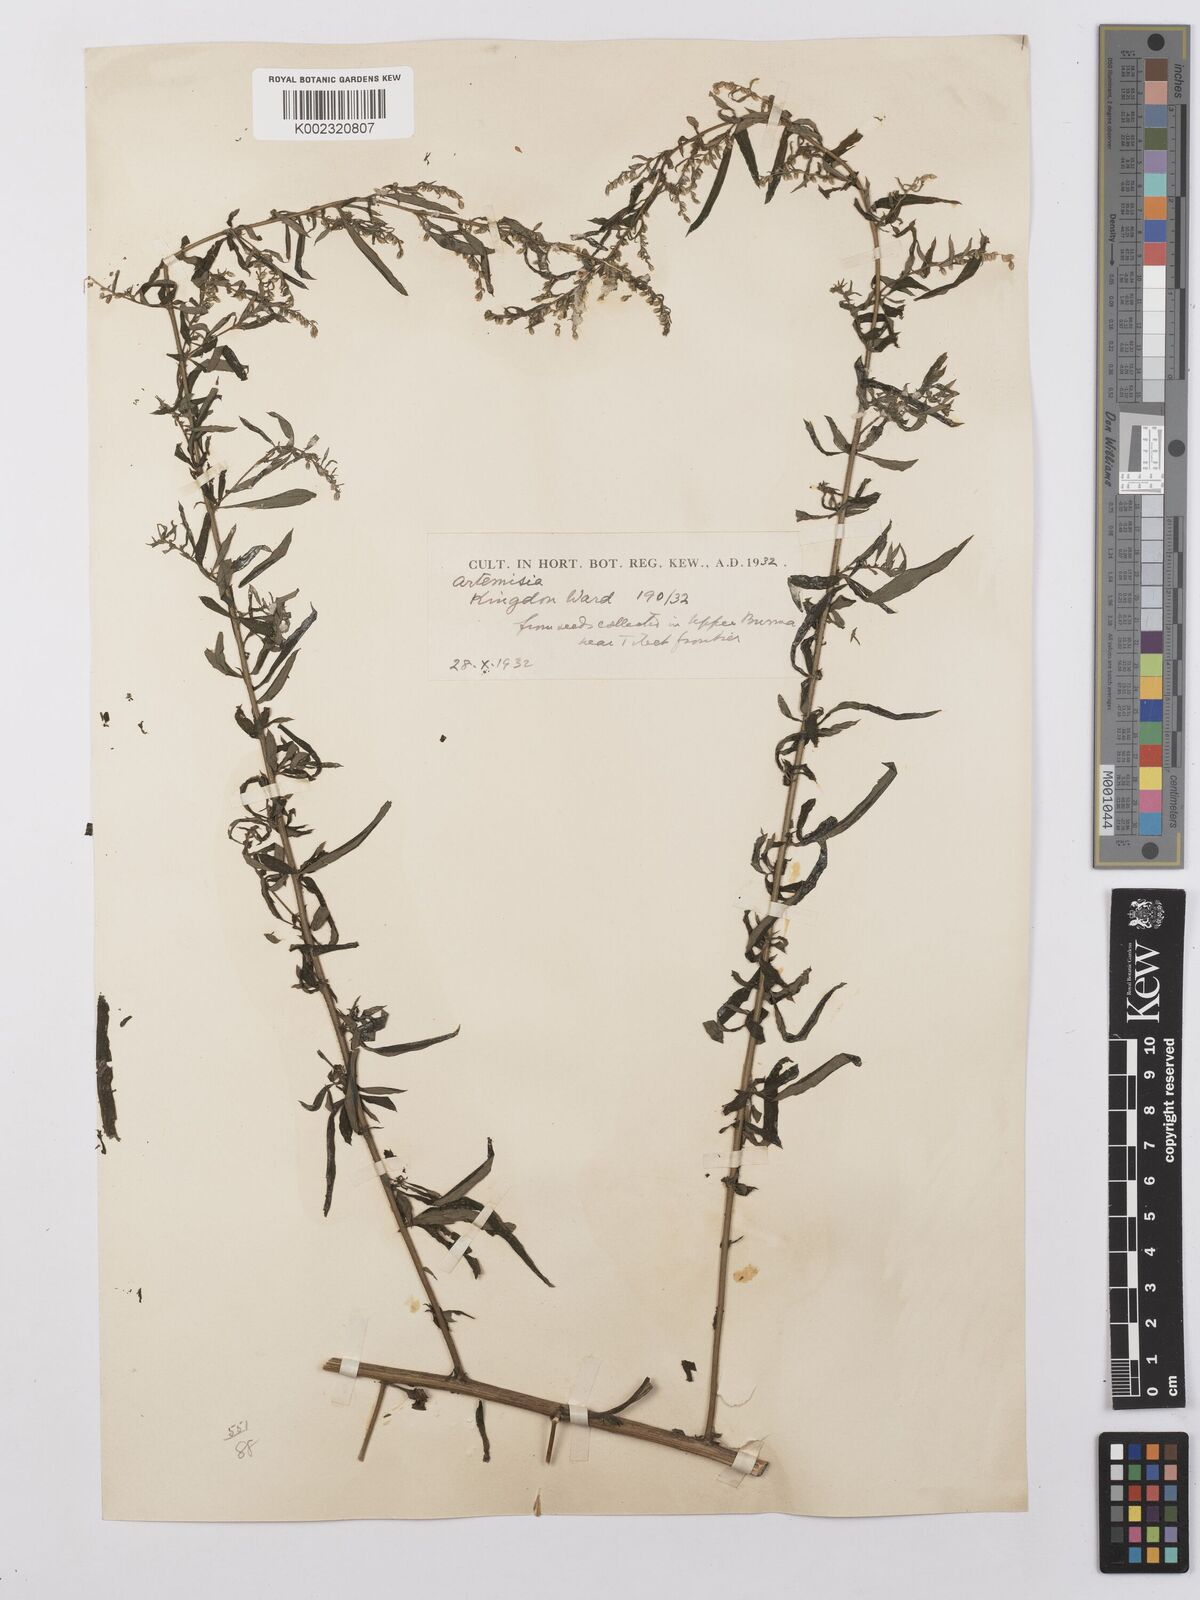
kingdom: Plantae
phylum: Tracheophyta
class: Magnoliopsida
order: Asterales
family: Asteraceae
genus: Artemisia
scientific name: Artemisia dubia
